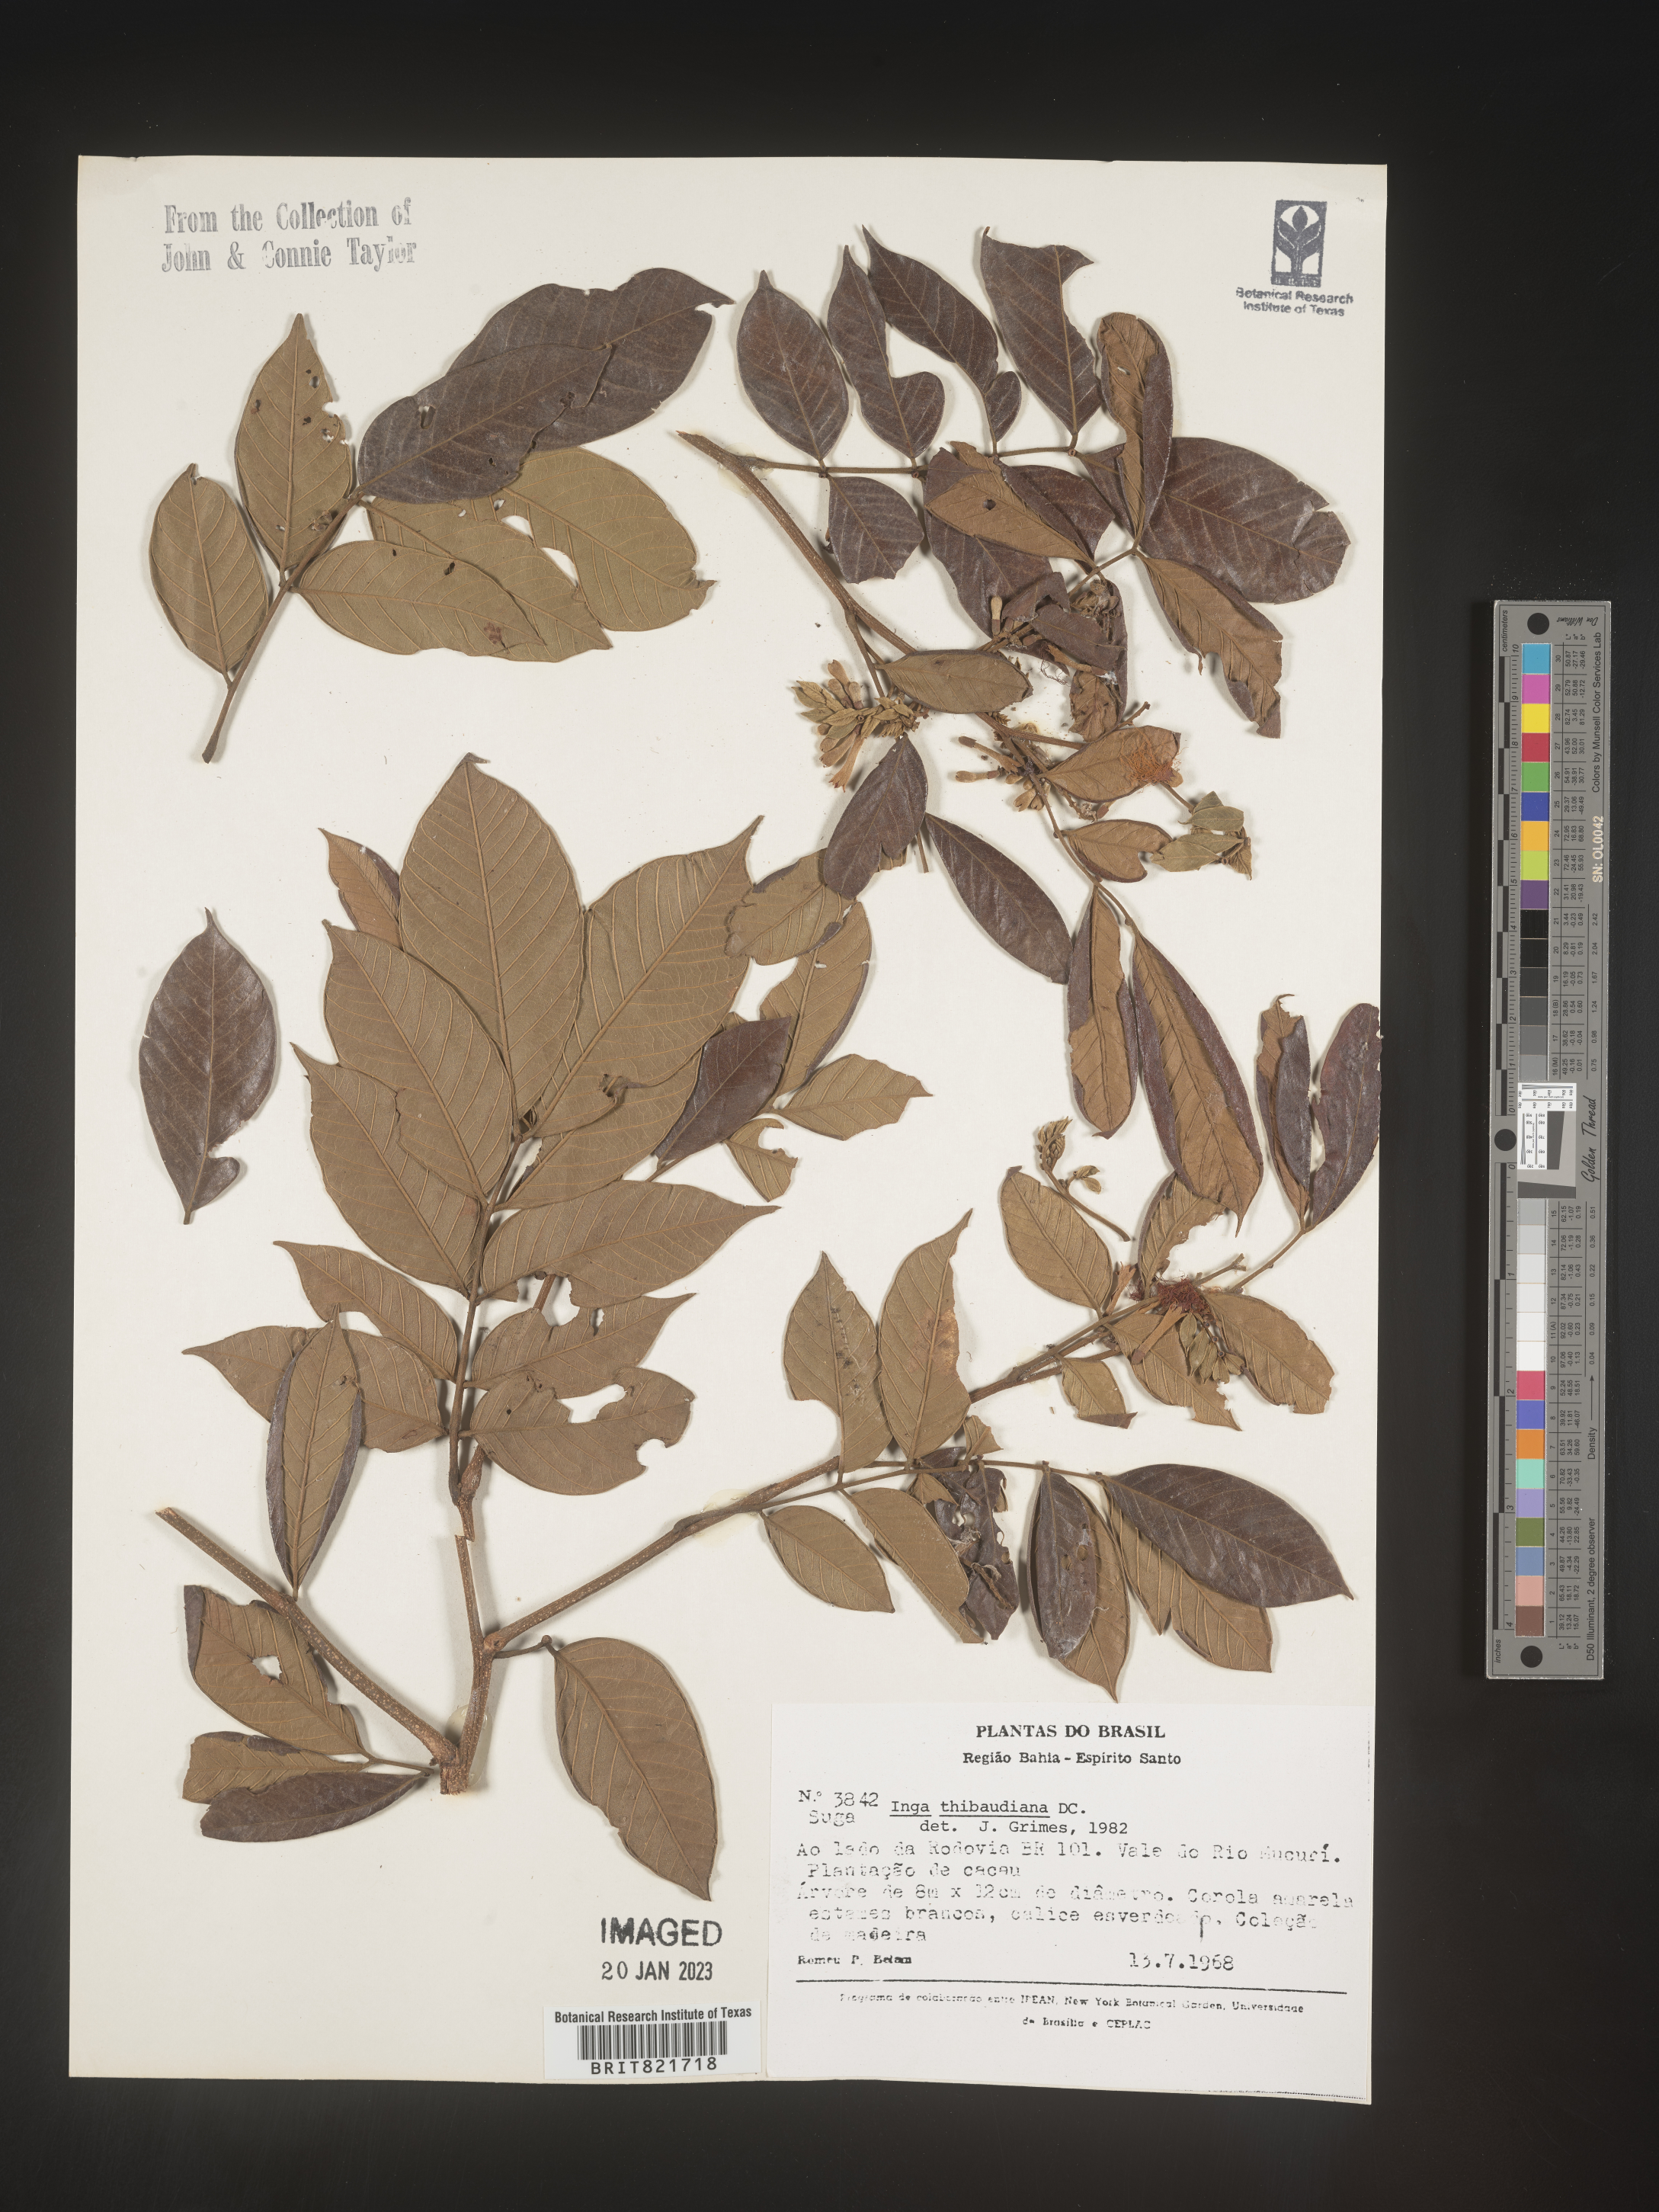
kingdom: Plantae
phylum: Tracheophyta
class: Magnoliopsida
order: Fabales
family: Fabaceae
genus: Inga
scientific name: Inga
